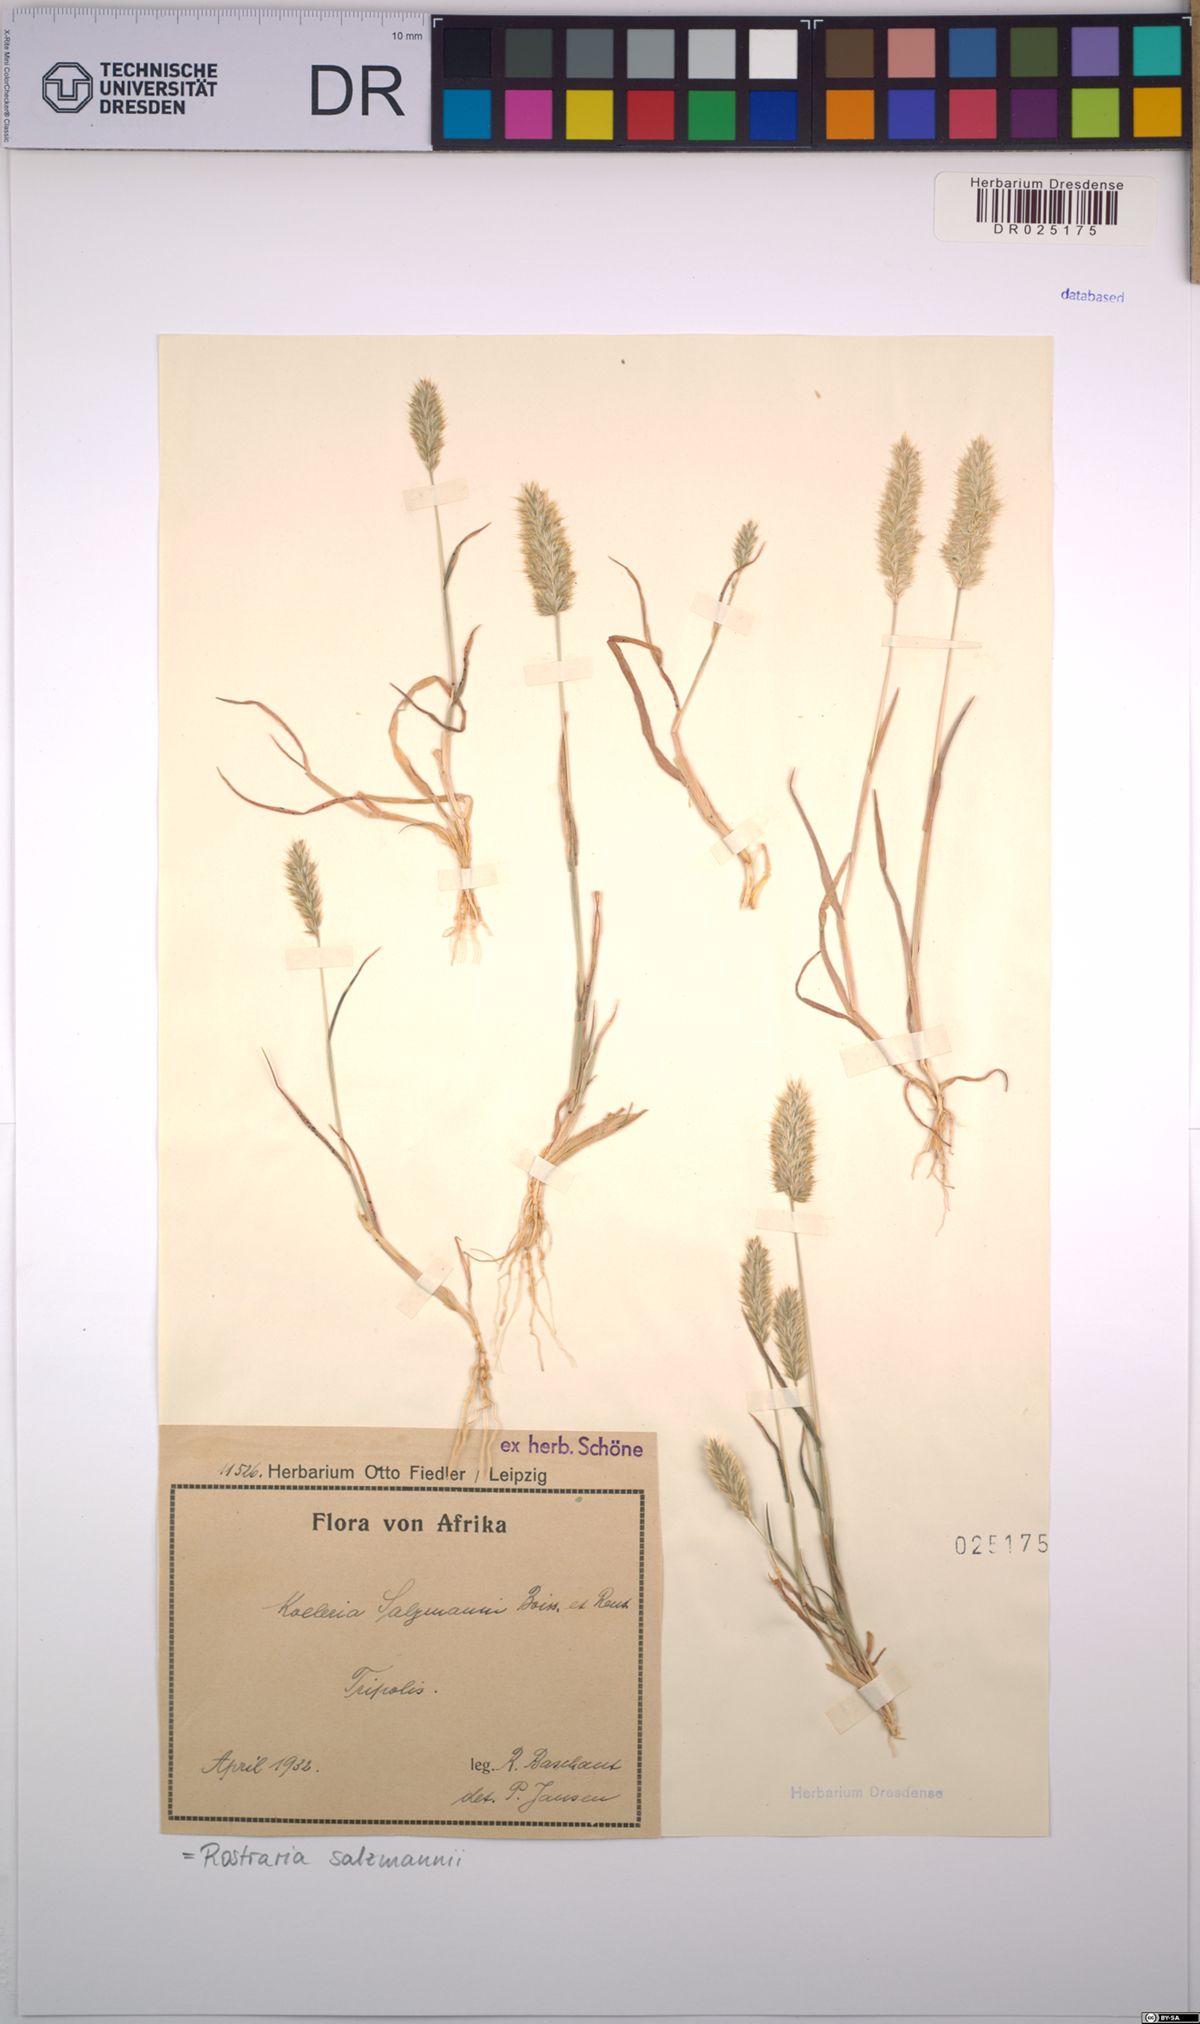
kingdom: Plantae
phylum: Tracheophyta
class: Liliopsida
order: Poales
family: Poaceae
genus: Rostraria
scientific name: Rostraria salzmannii
